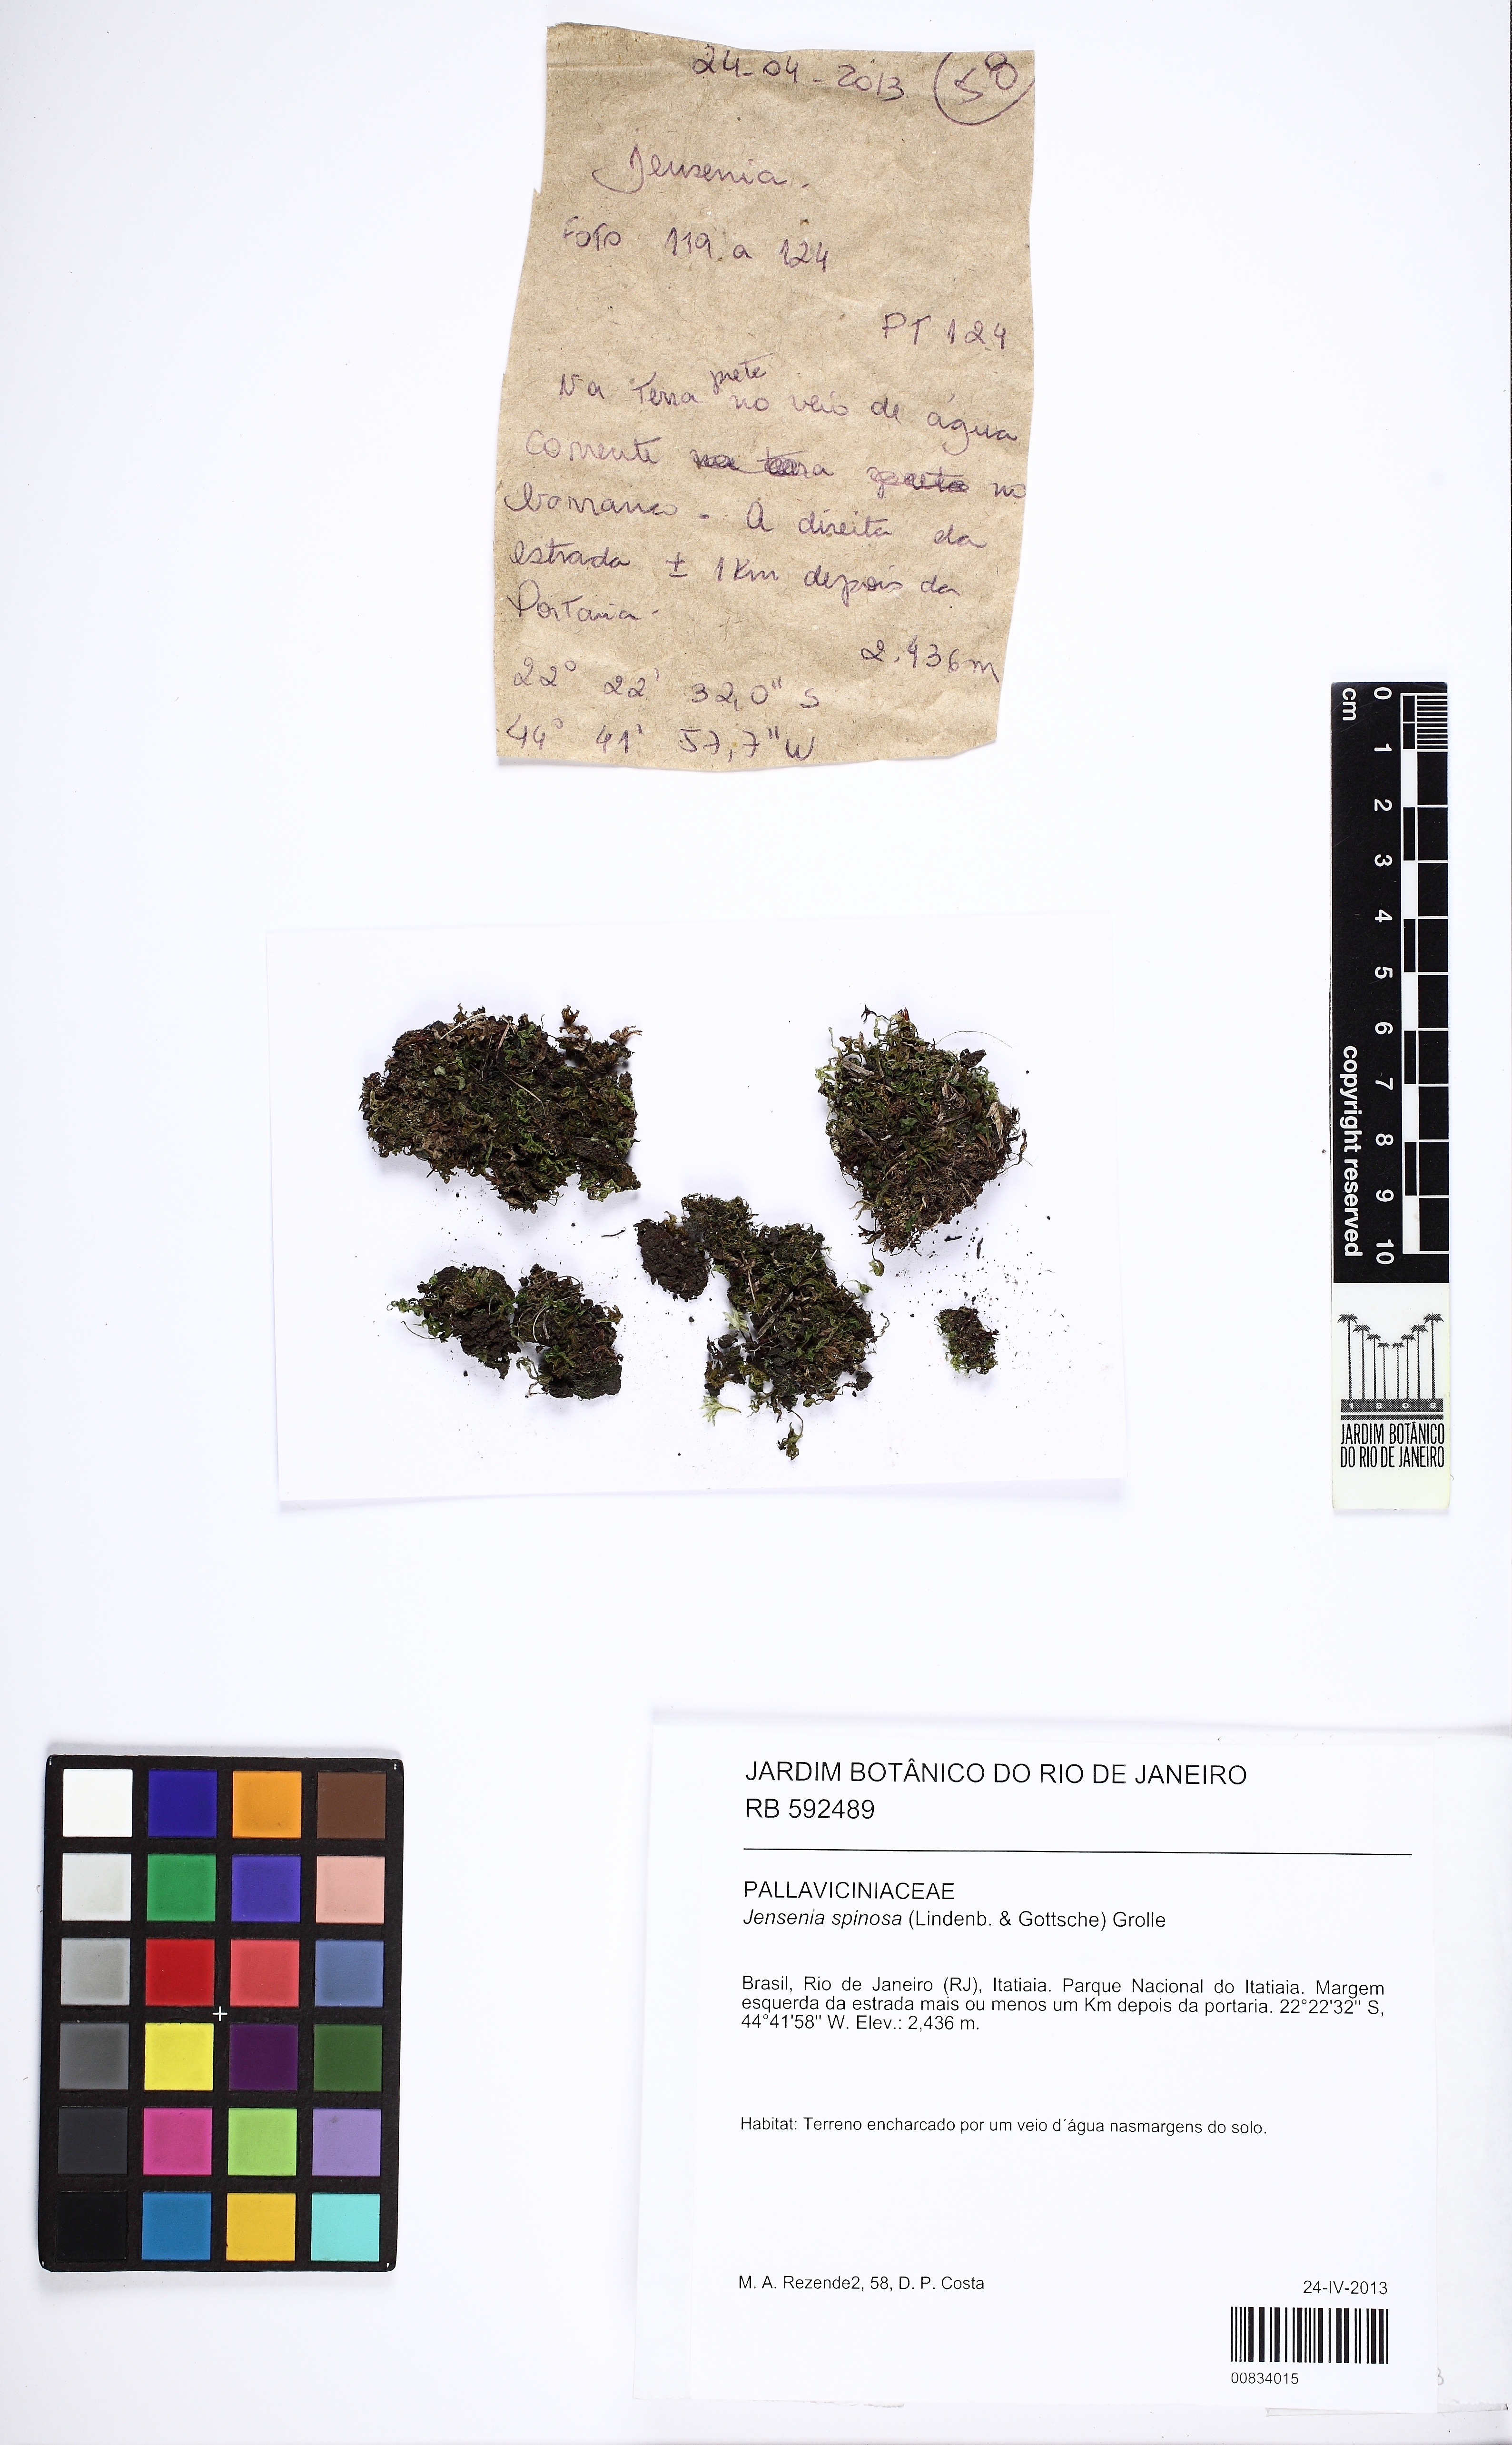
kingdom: Plantae
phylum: Marchantiophyta
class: Jungermanniopsida
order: Pallaviciniales
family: Pallaviciniaceae
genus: Jensenia
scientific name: Jensenia spinosa
